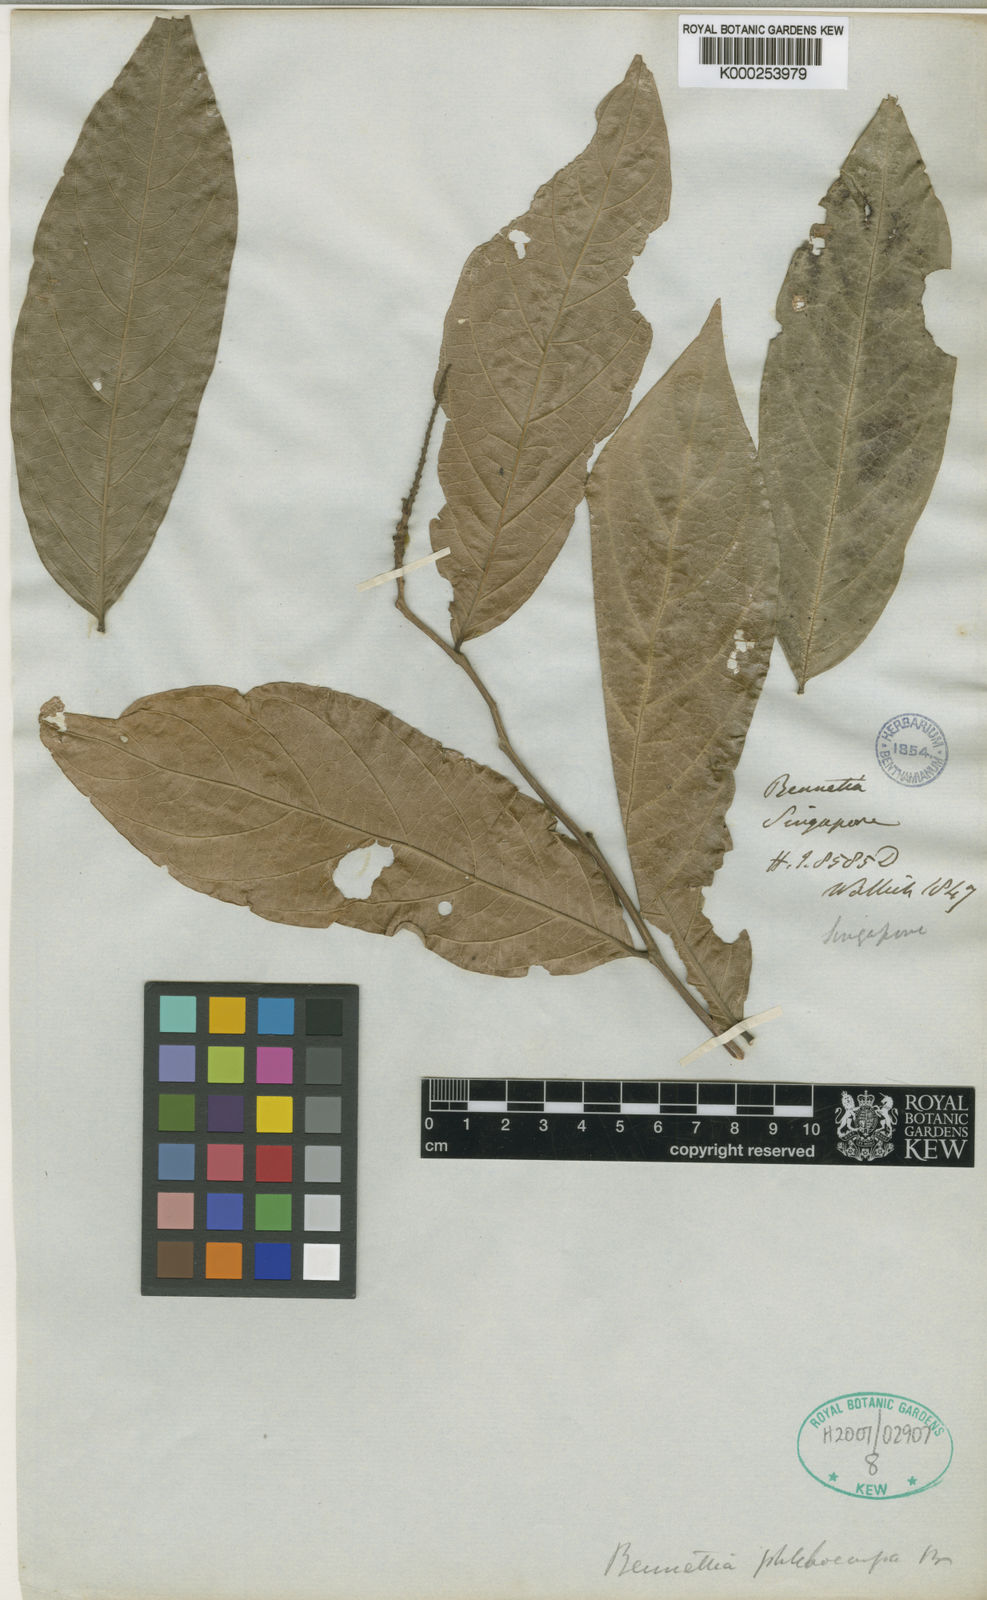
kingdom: Plantae
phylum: Tracheophyta
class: Magnoliopsida
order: Malpighiales
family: Pandaceae
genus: Galearia
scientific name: Galearia fulva
